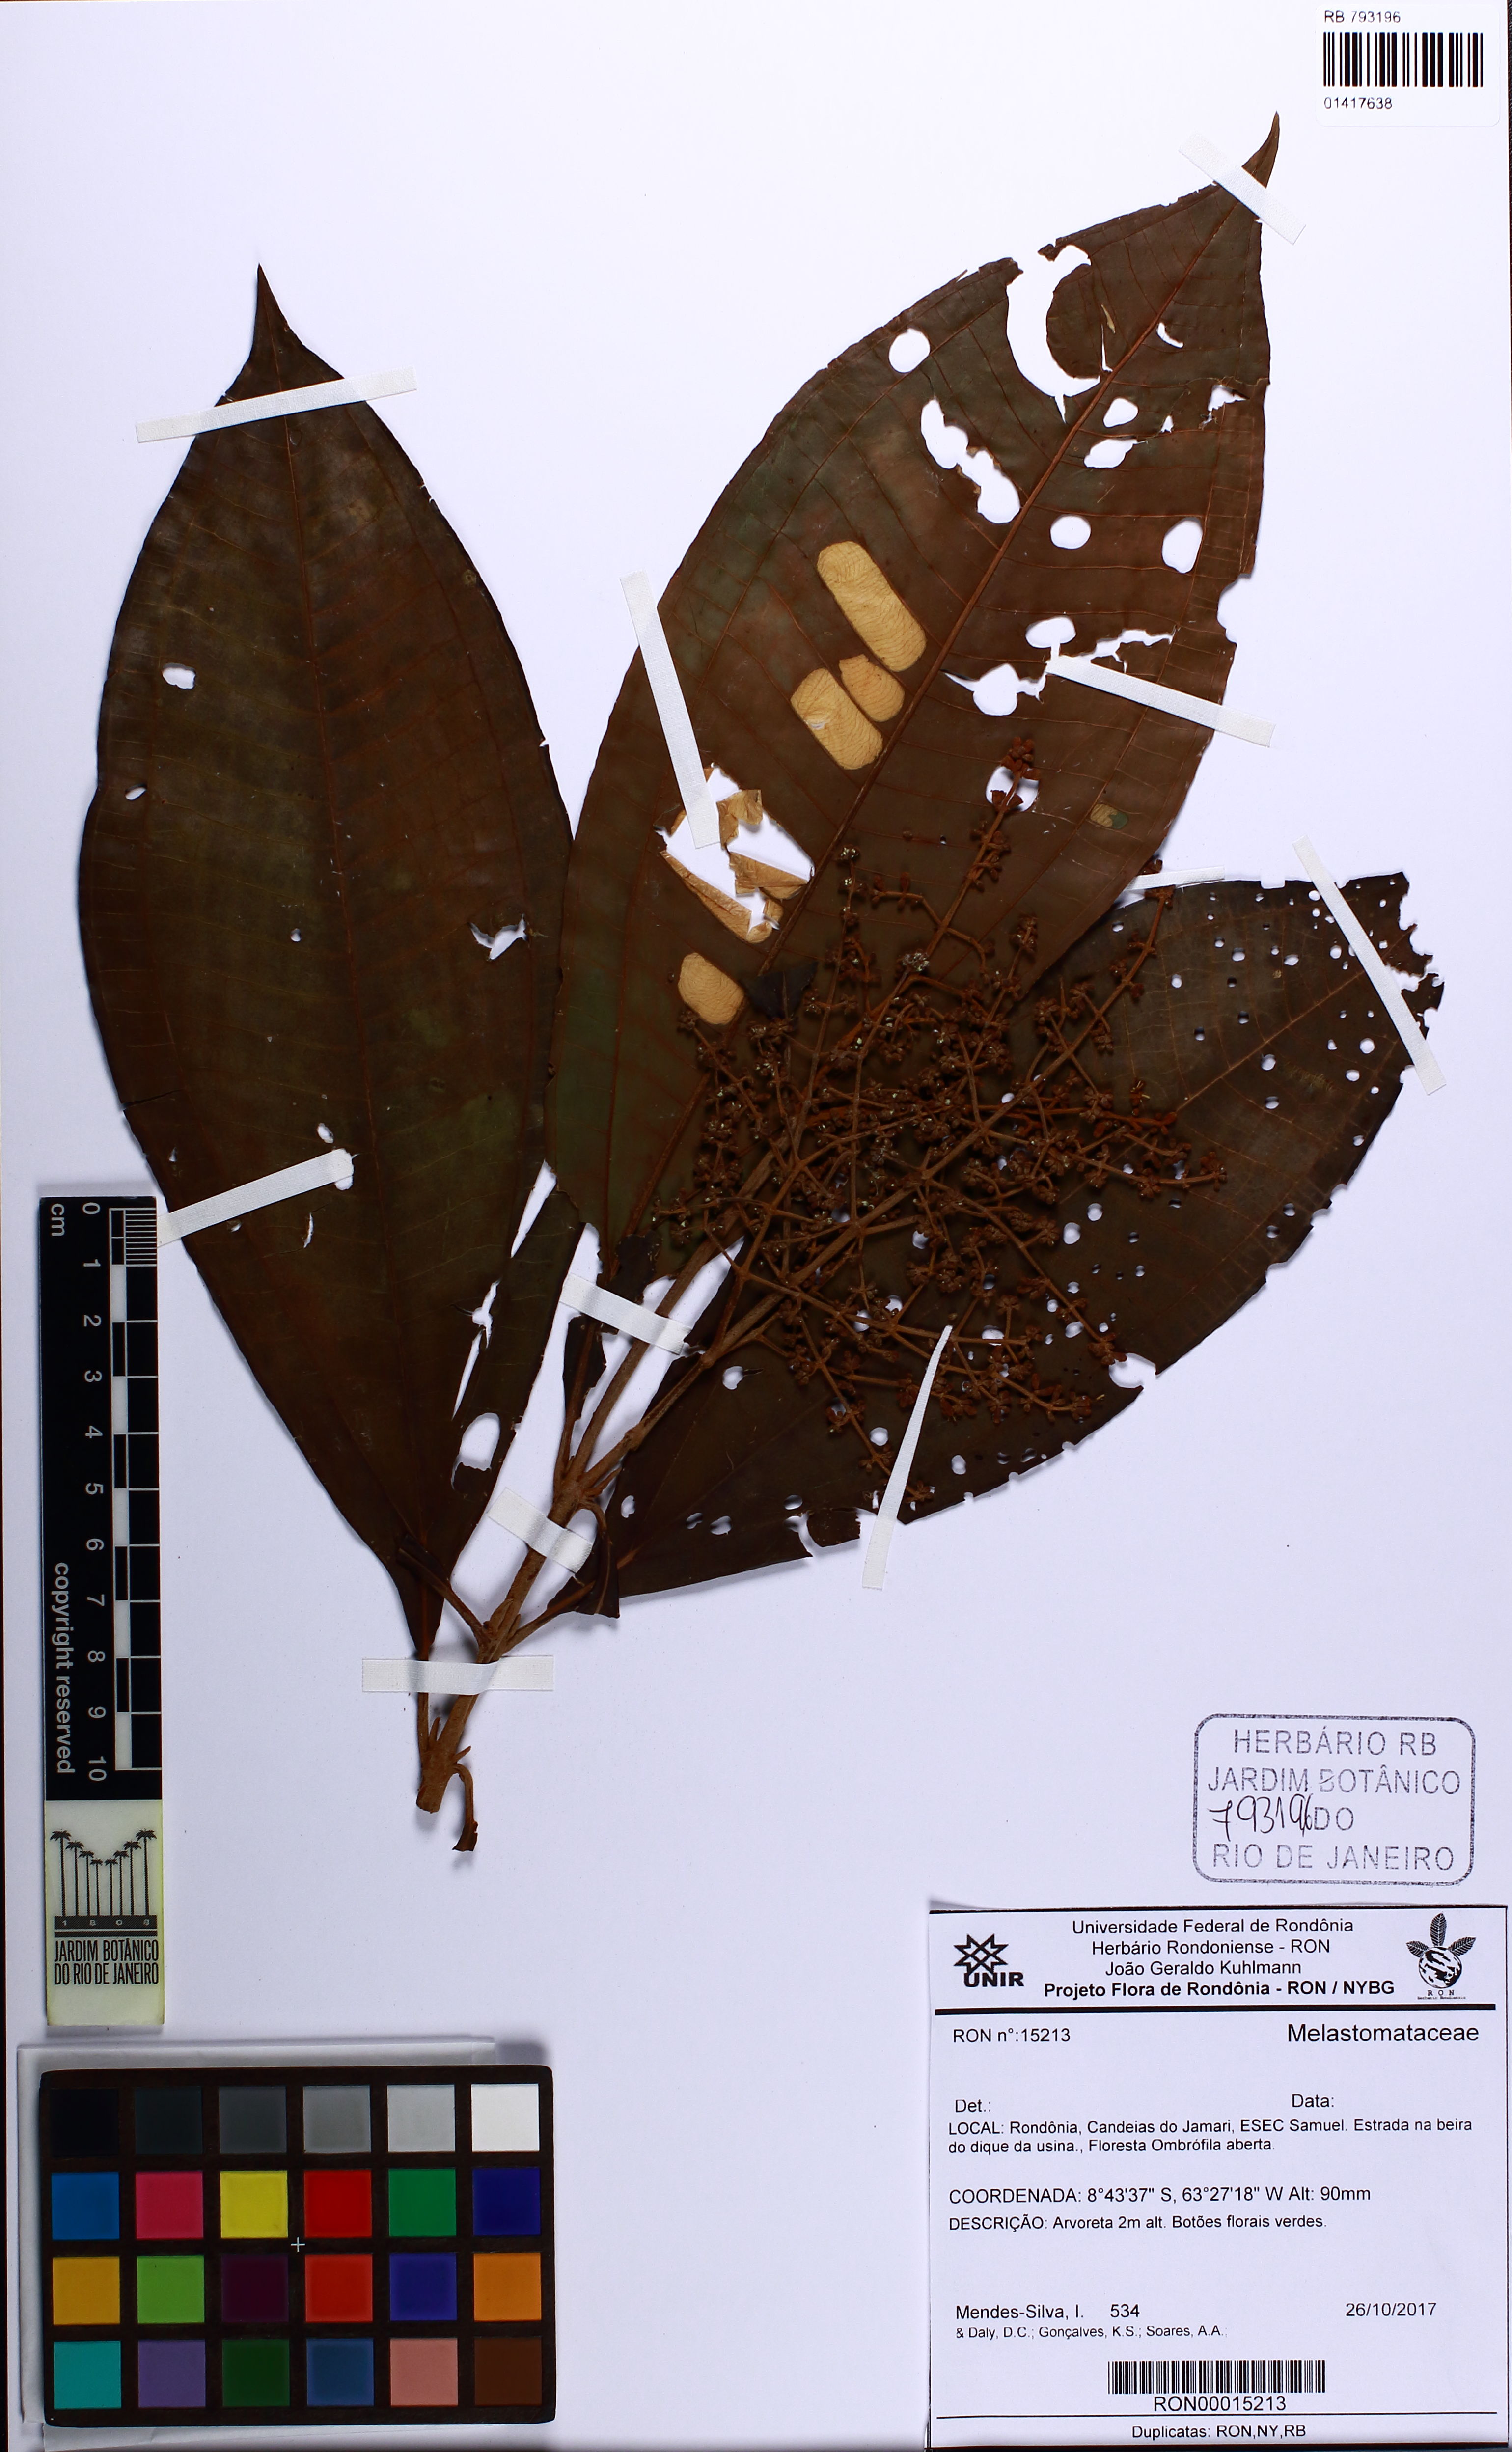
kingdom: Plantae
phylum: Tracheophyta
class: Magnoliopsida
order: Myrtales
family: Melastomataceae
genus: Miconia
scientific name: Miconia
